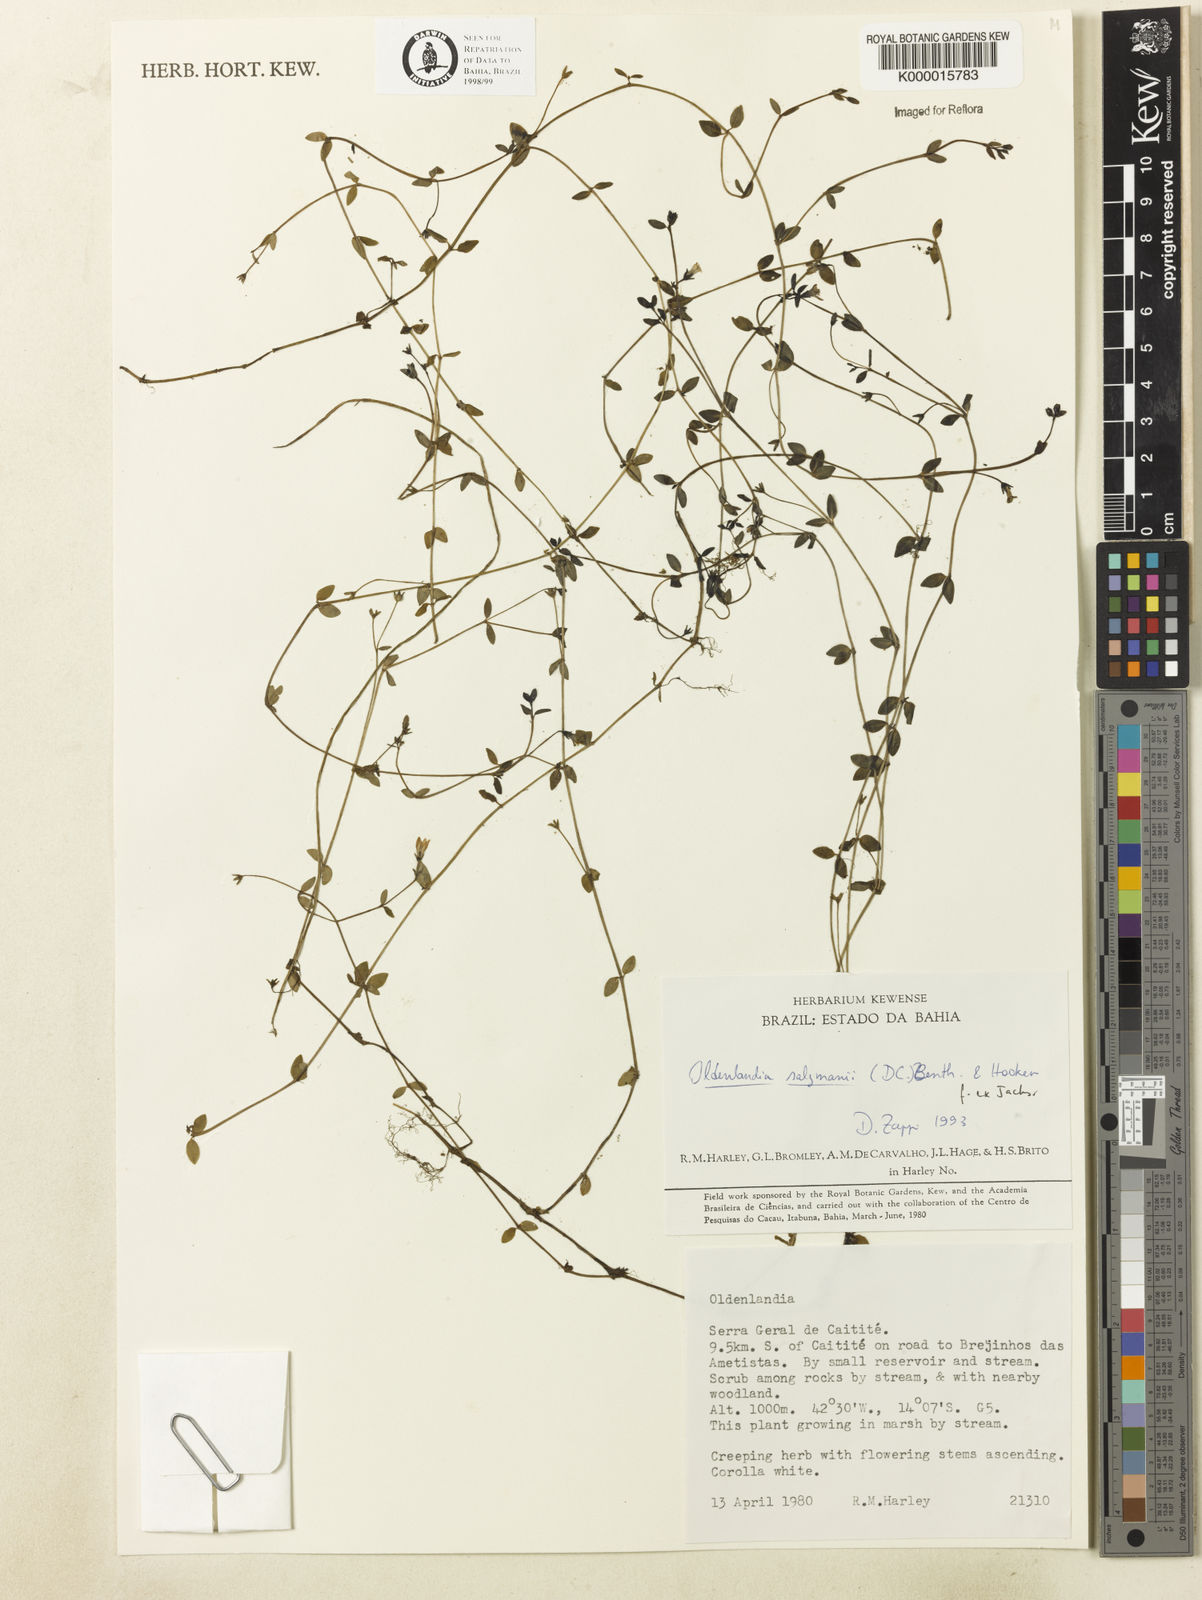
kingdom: Plantae
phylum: Tracheophyta
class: Magnoliopsida
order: Gentianales
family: Rubiaceae
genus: Oldenlandia
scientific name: Oldenlandia salzmannii
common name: Salzmann's mille graines
